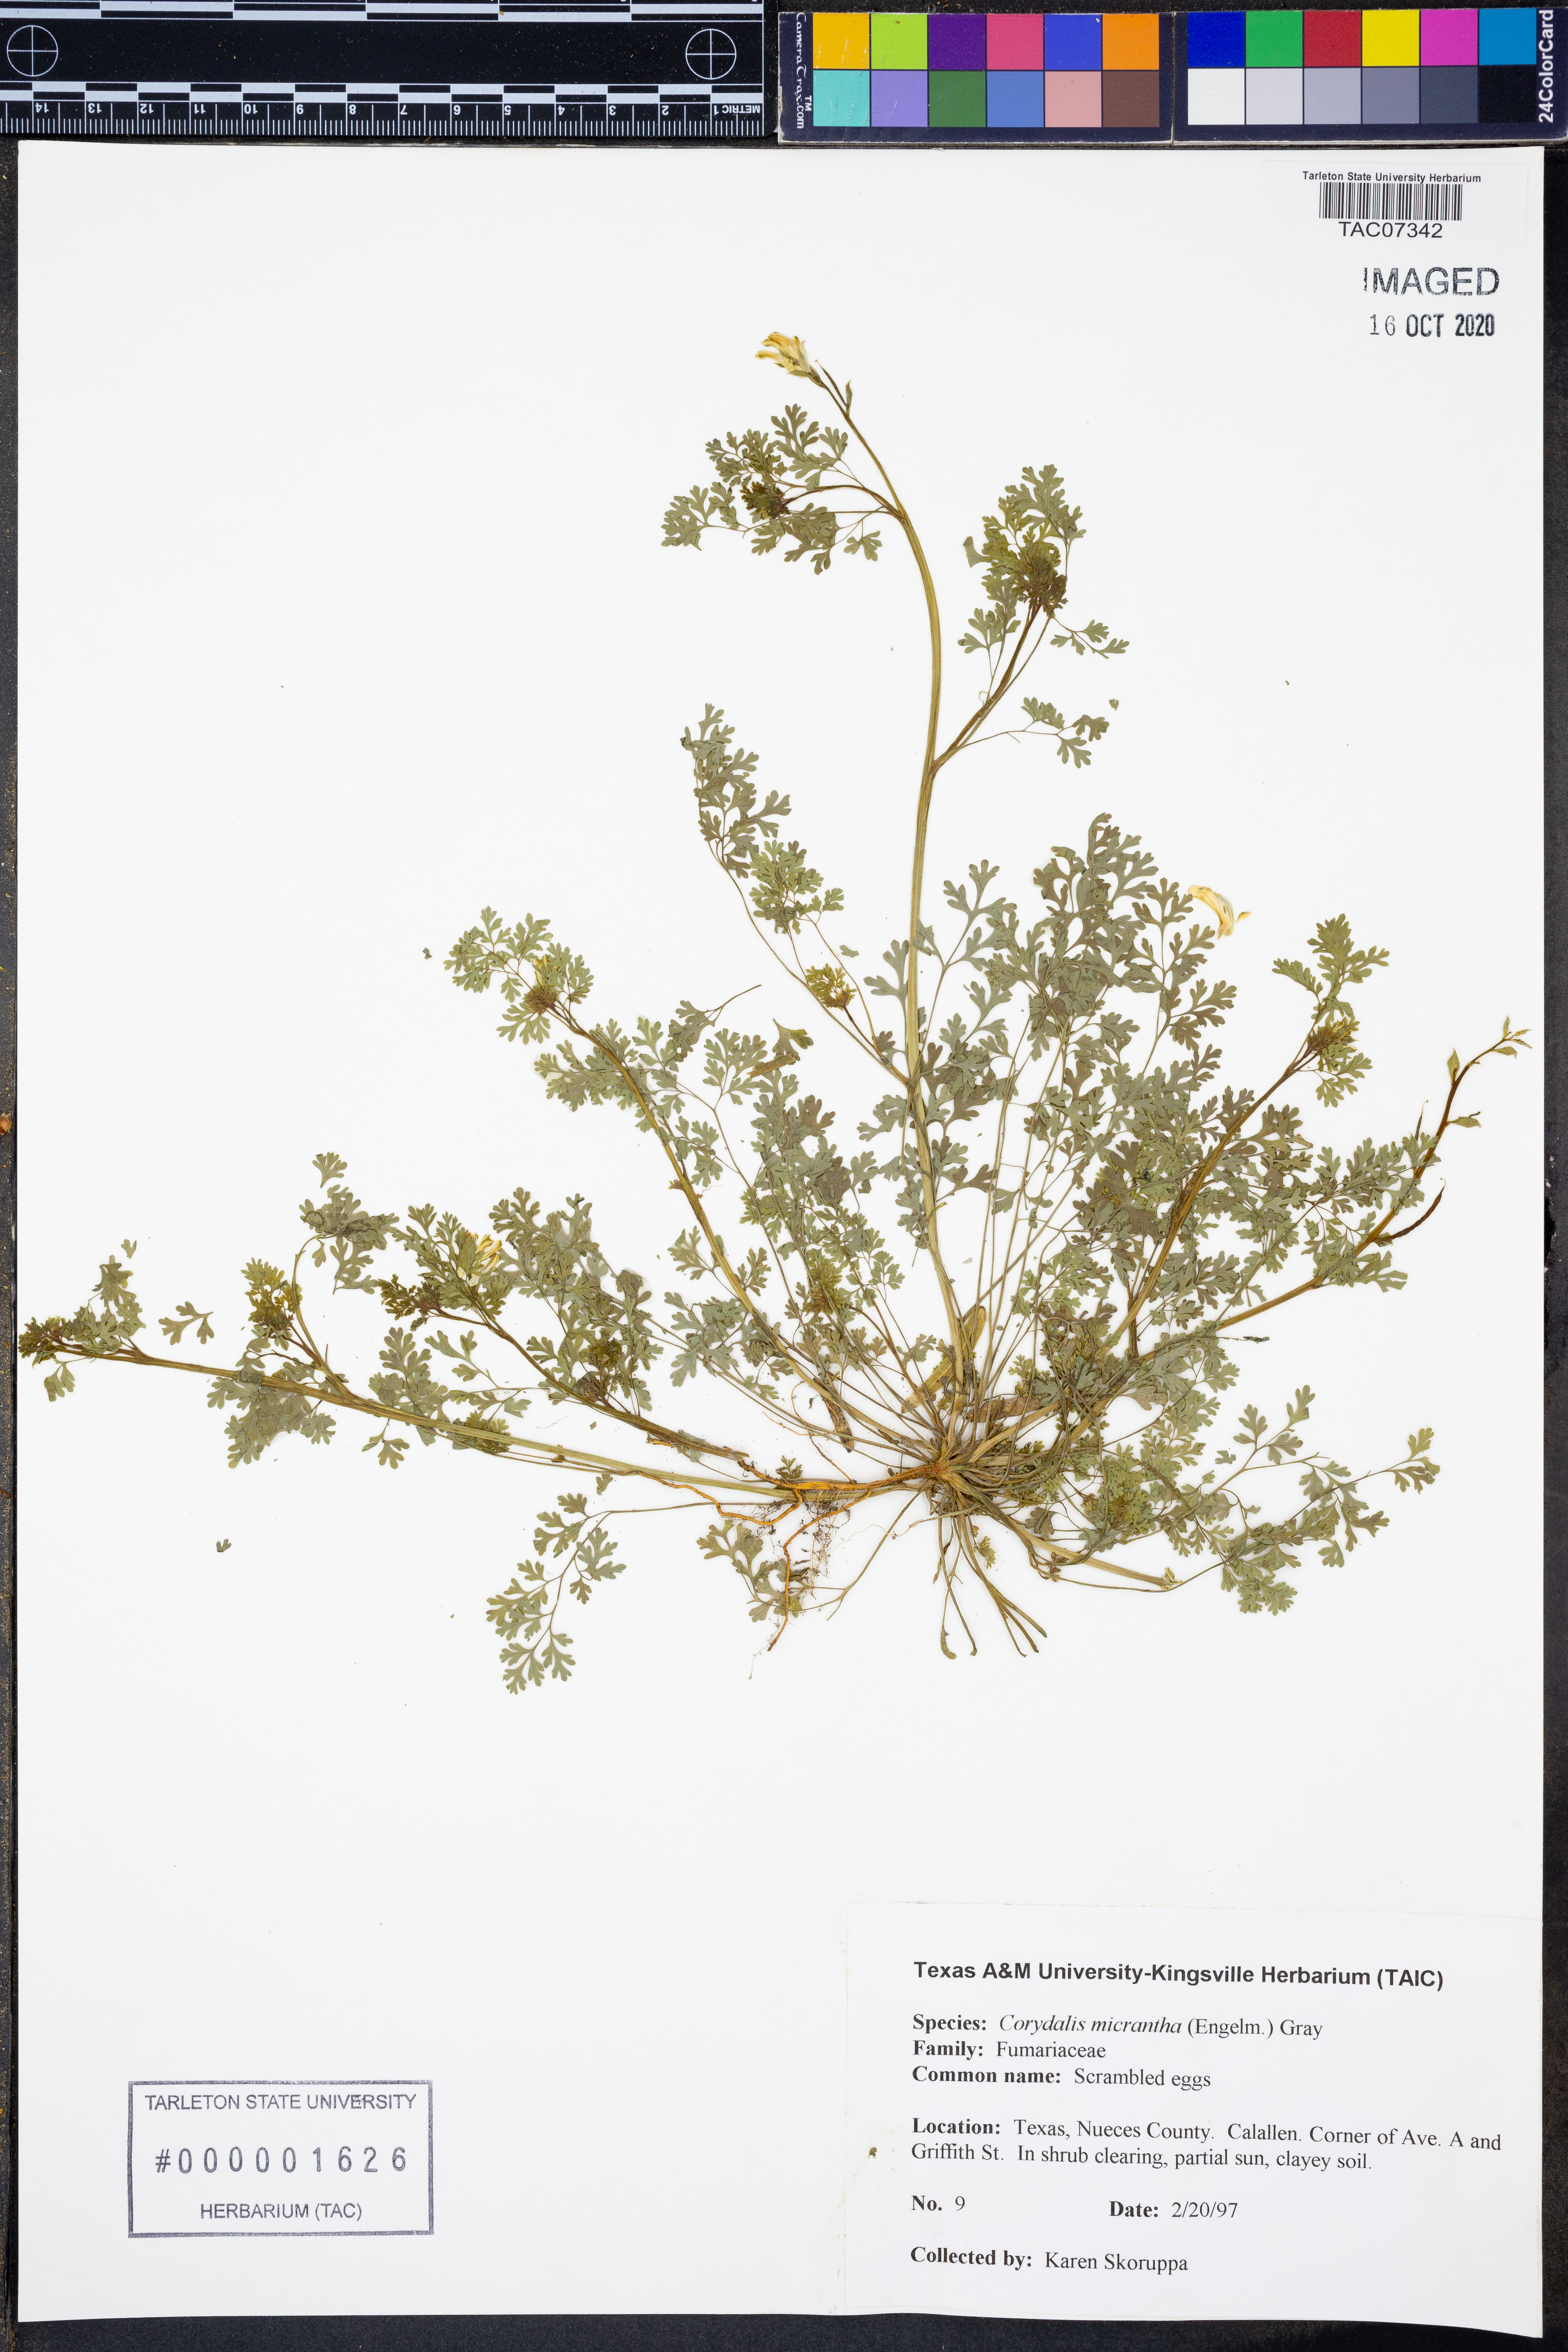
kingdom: Plantae
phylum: Tracheophyta
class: Magnoliopsida
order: Ranunculales
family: Papaveraceae
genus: Corydalis
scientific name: Corydalis micrantha
